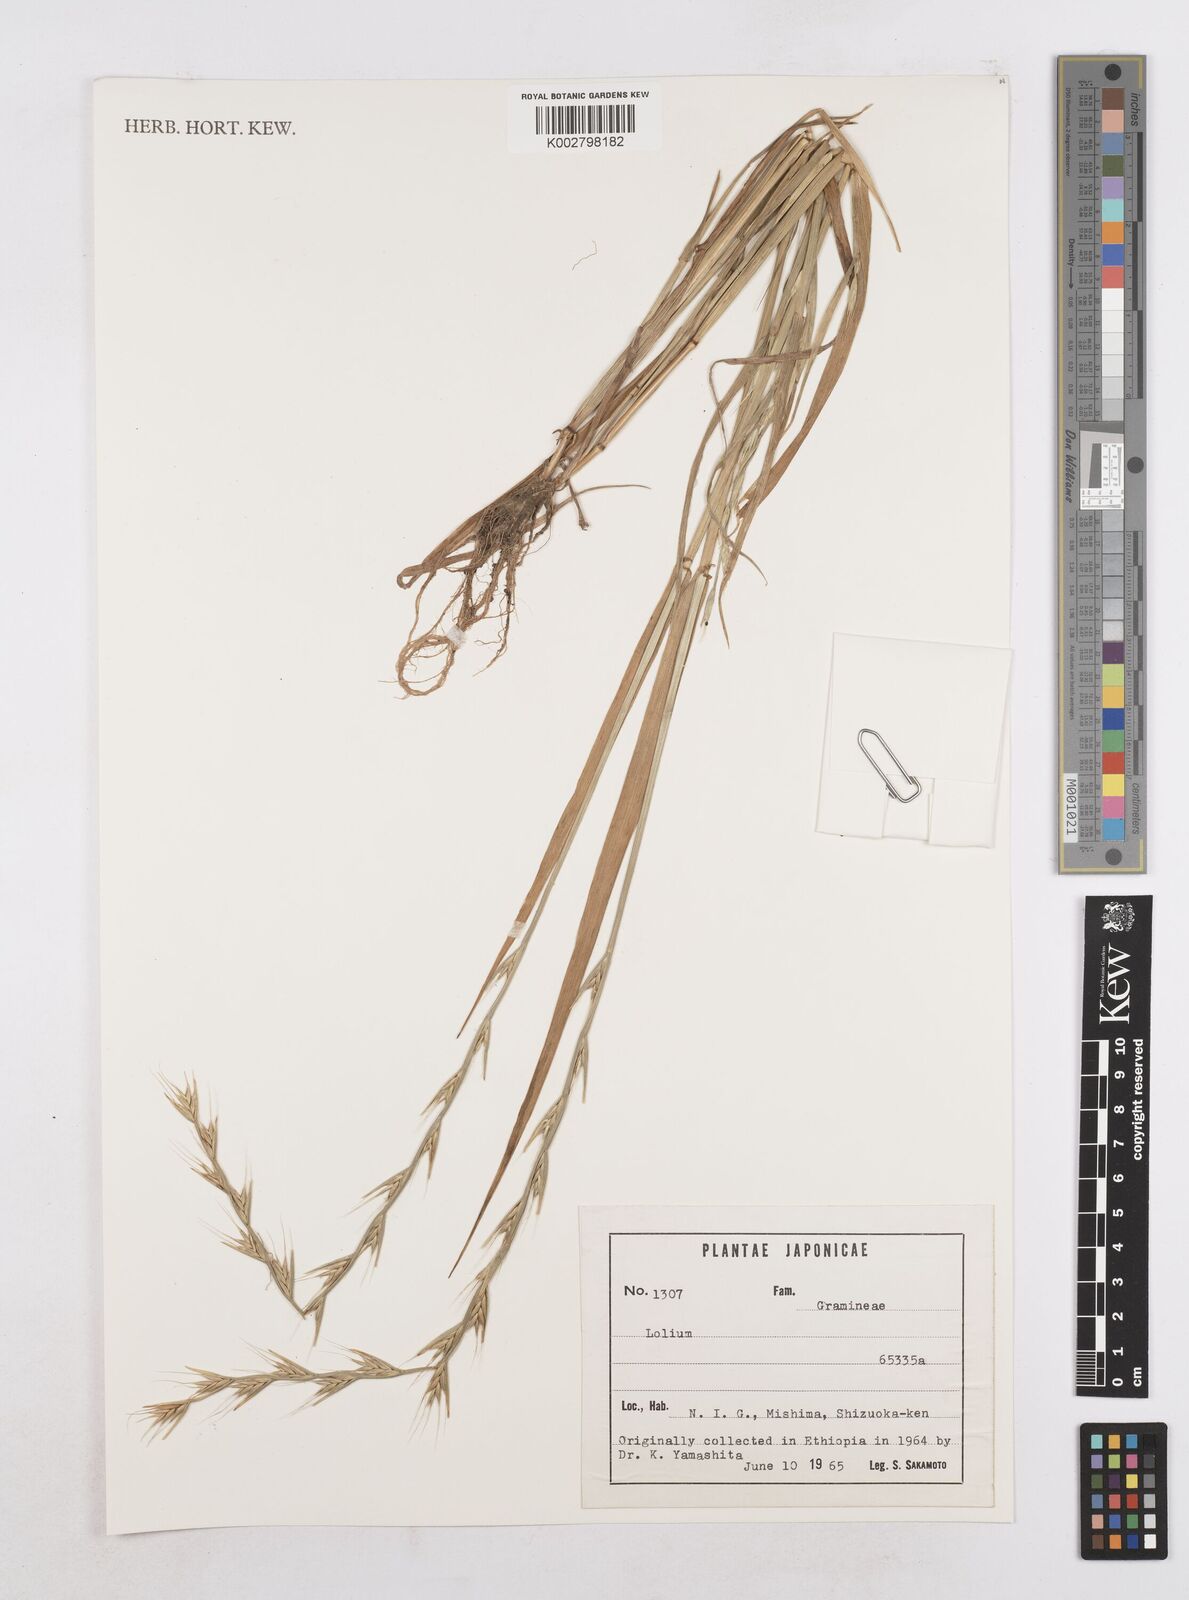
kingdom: Plantae
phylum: Tracheophyta
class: Liliopsida
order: Poales
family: Poaceae
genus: Lolium
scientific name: Lolium
